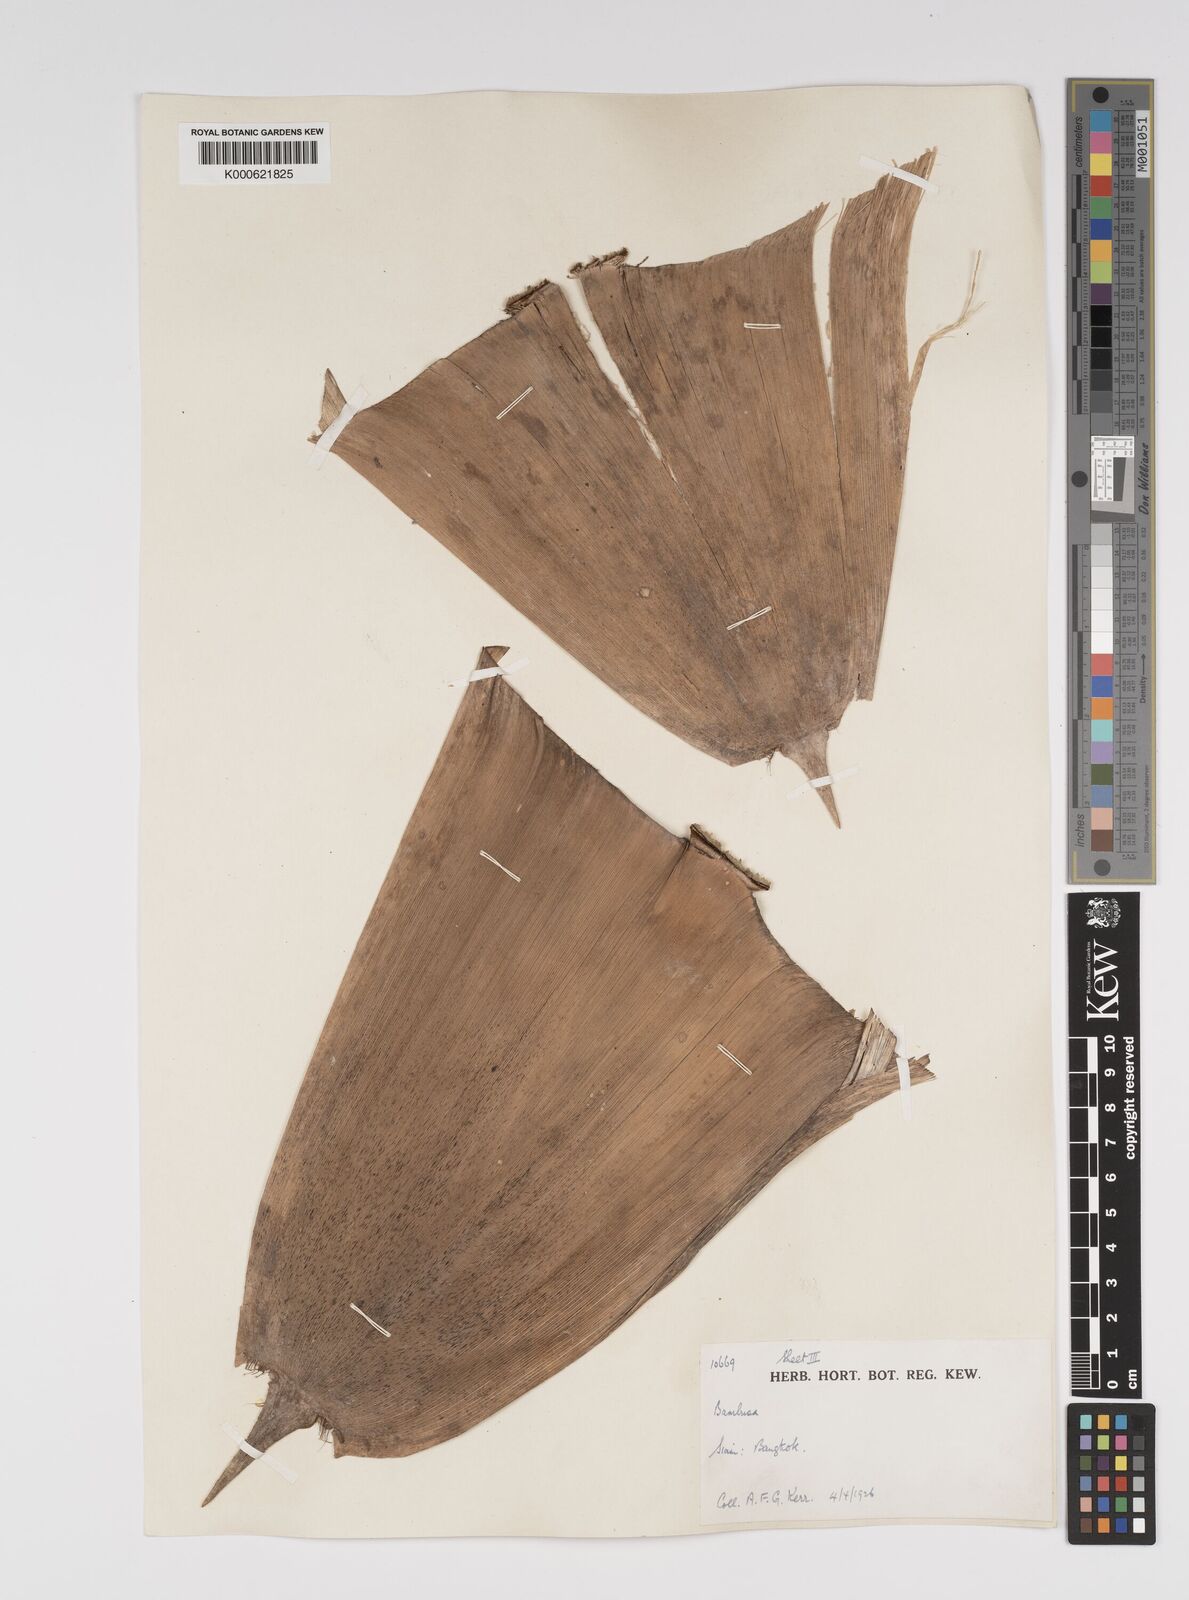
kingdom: Plantae
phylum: Tracheophyta
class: Liliopsida
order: Poales
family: Poaceae
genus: Bambusa
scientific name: Bambusa spinosa
